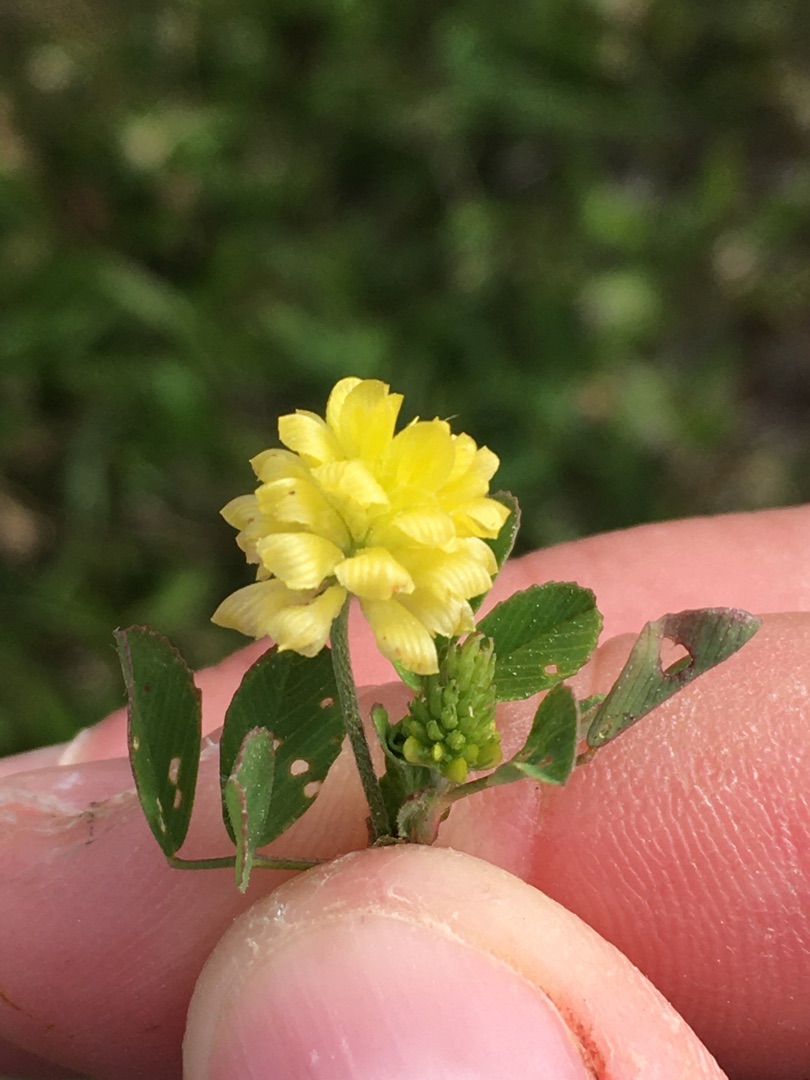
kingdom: Plantae
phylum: Tracheophyta
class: Magnoliopsida
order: Fabales
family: Fabaceae
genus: Trifolium
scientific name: Trifolium campestre
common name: Gul kløver
